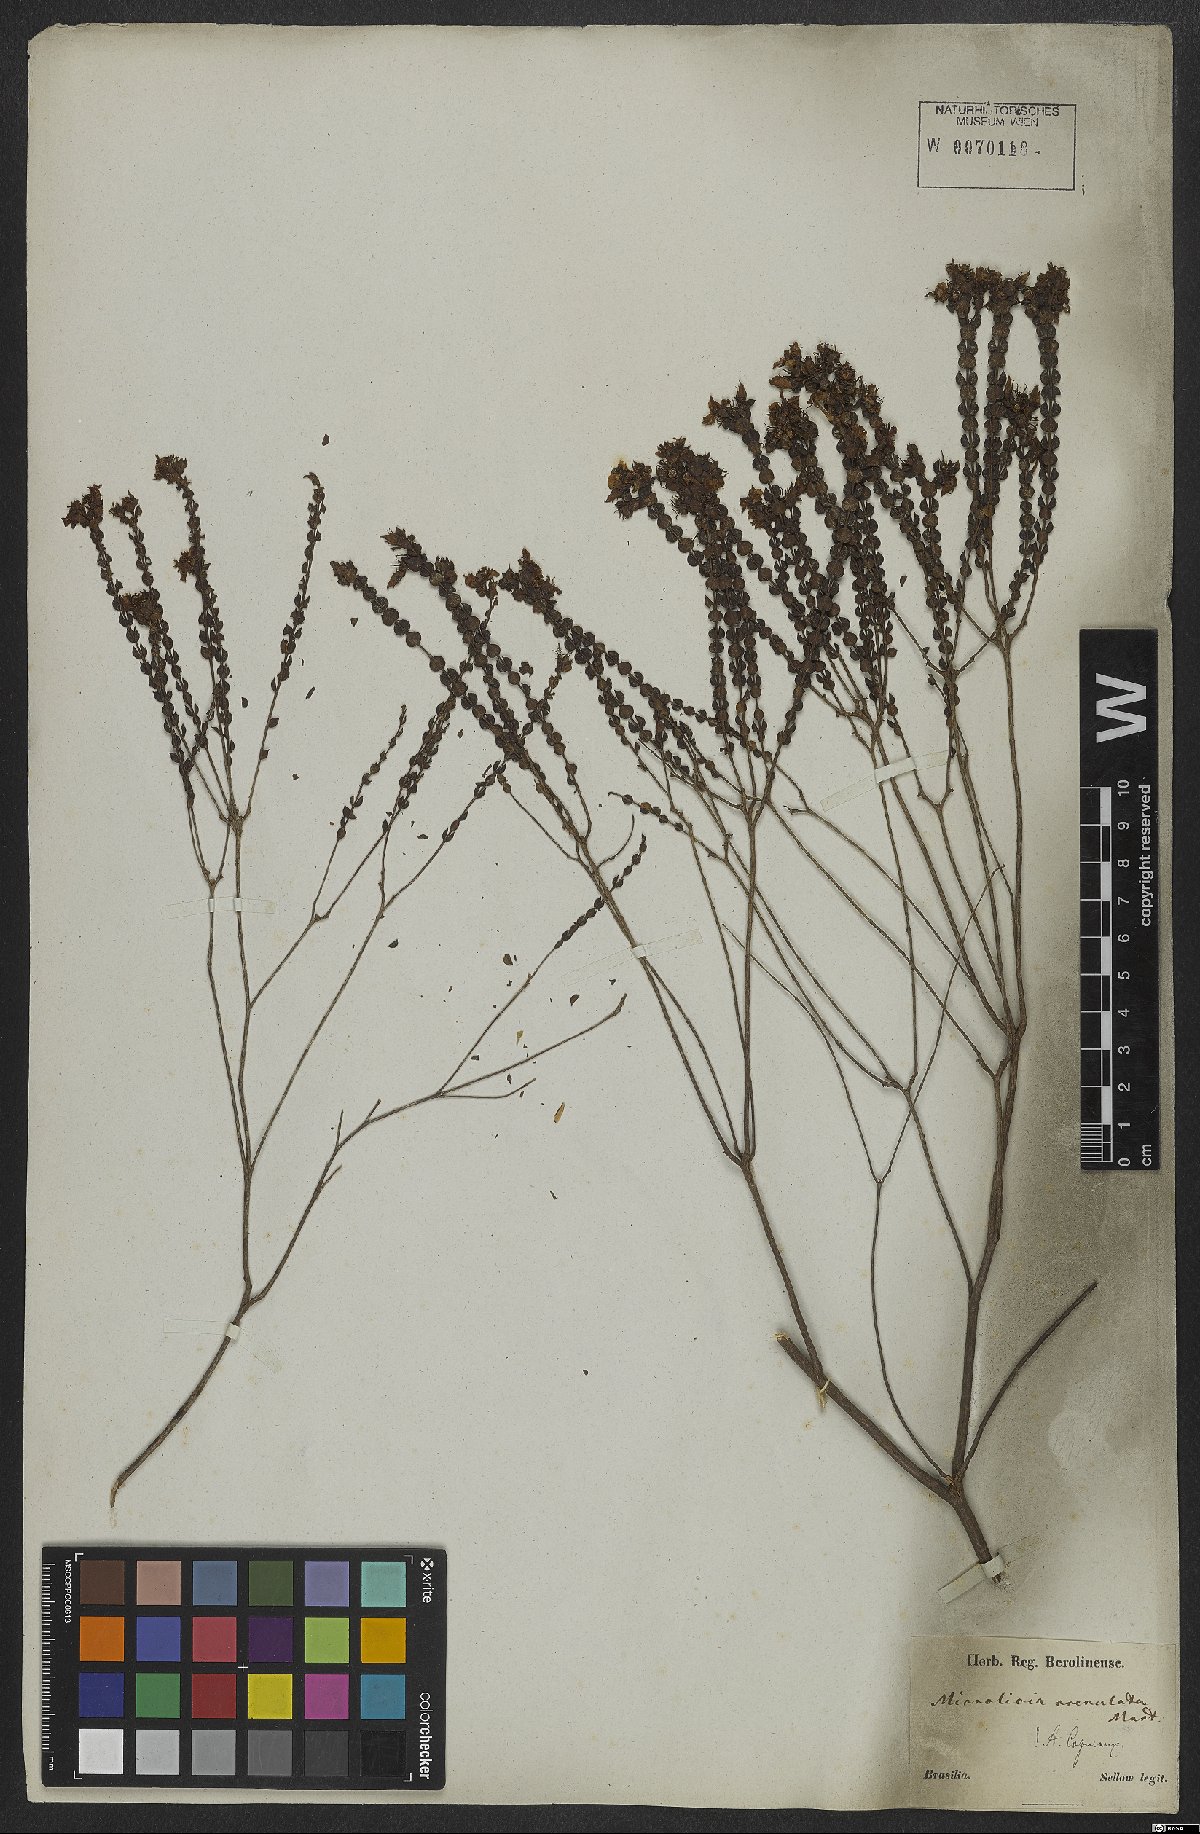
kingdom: Plantae
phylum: Tracheophyta
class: Magnoliopsida
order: Myrtales
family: Melastomataceae
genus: Microlicia
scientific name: Microlicia crenulata
